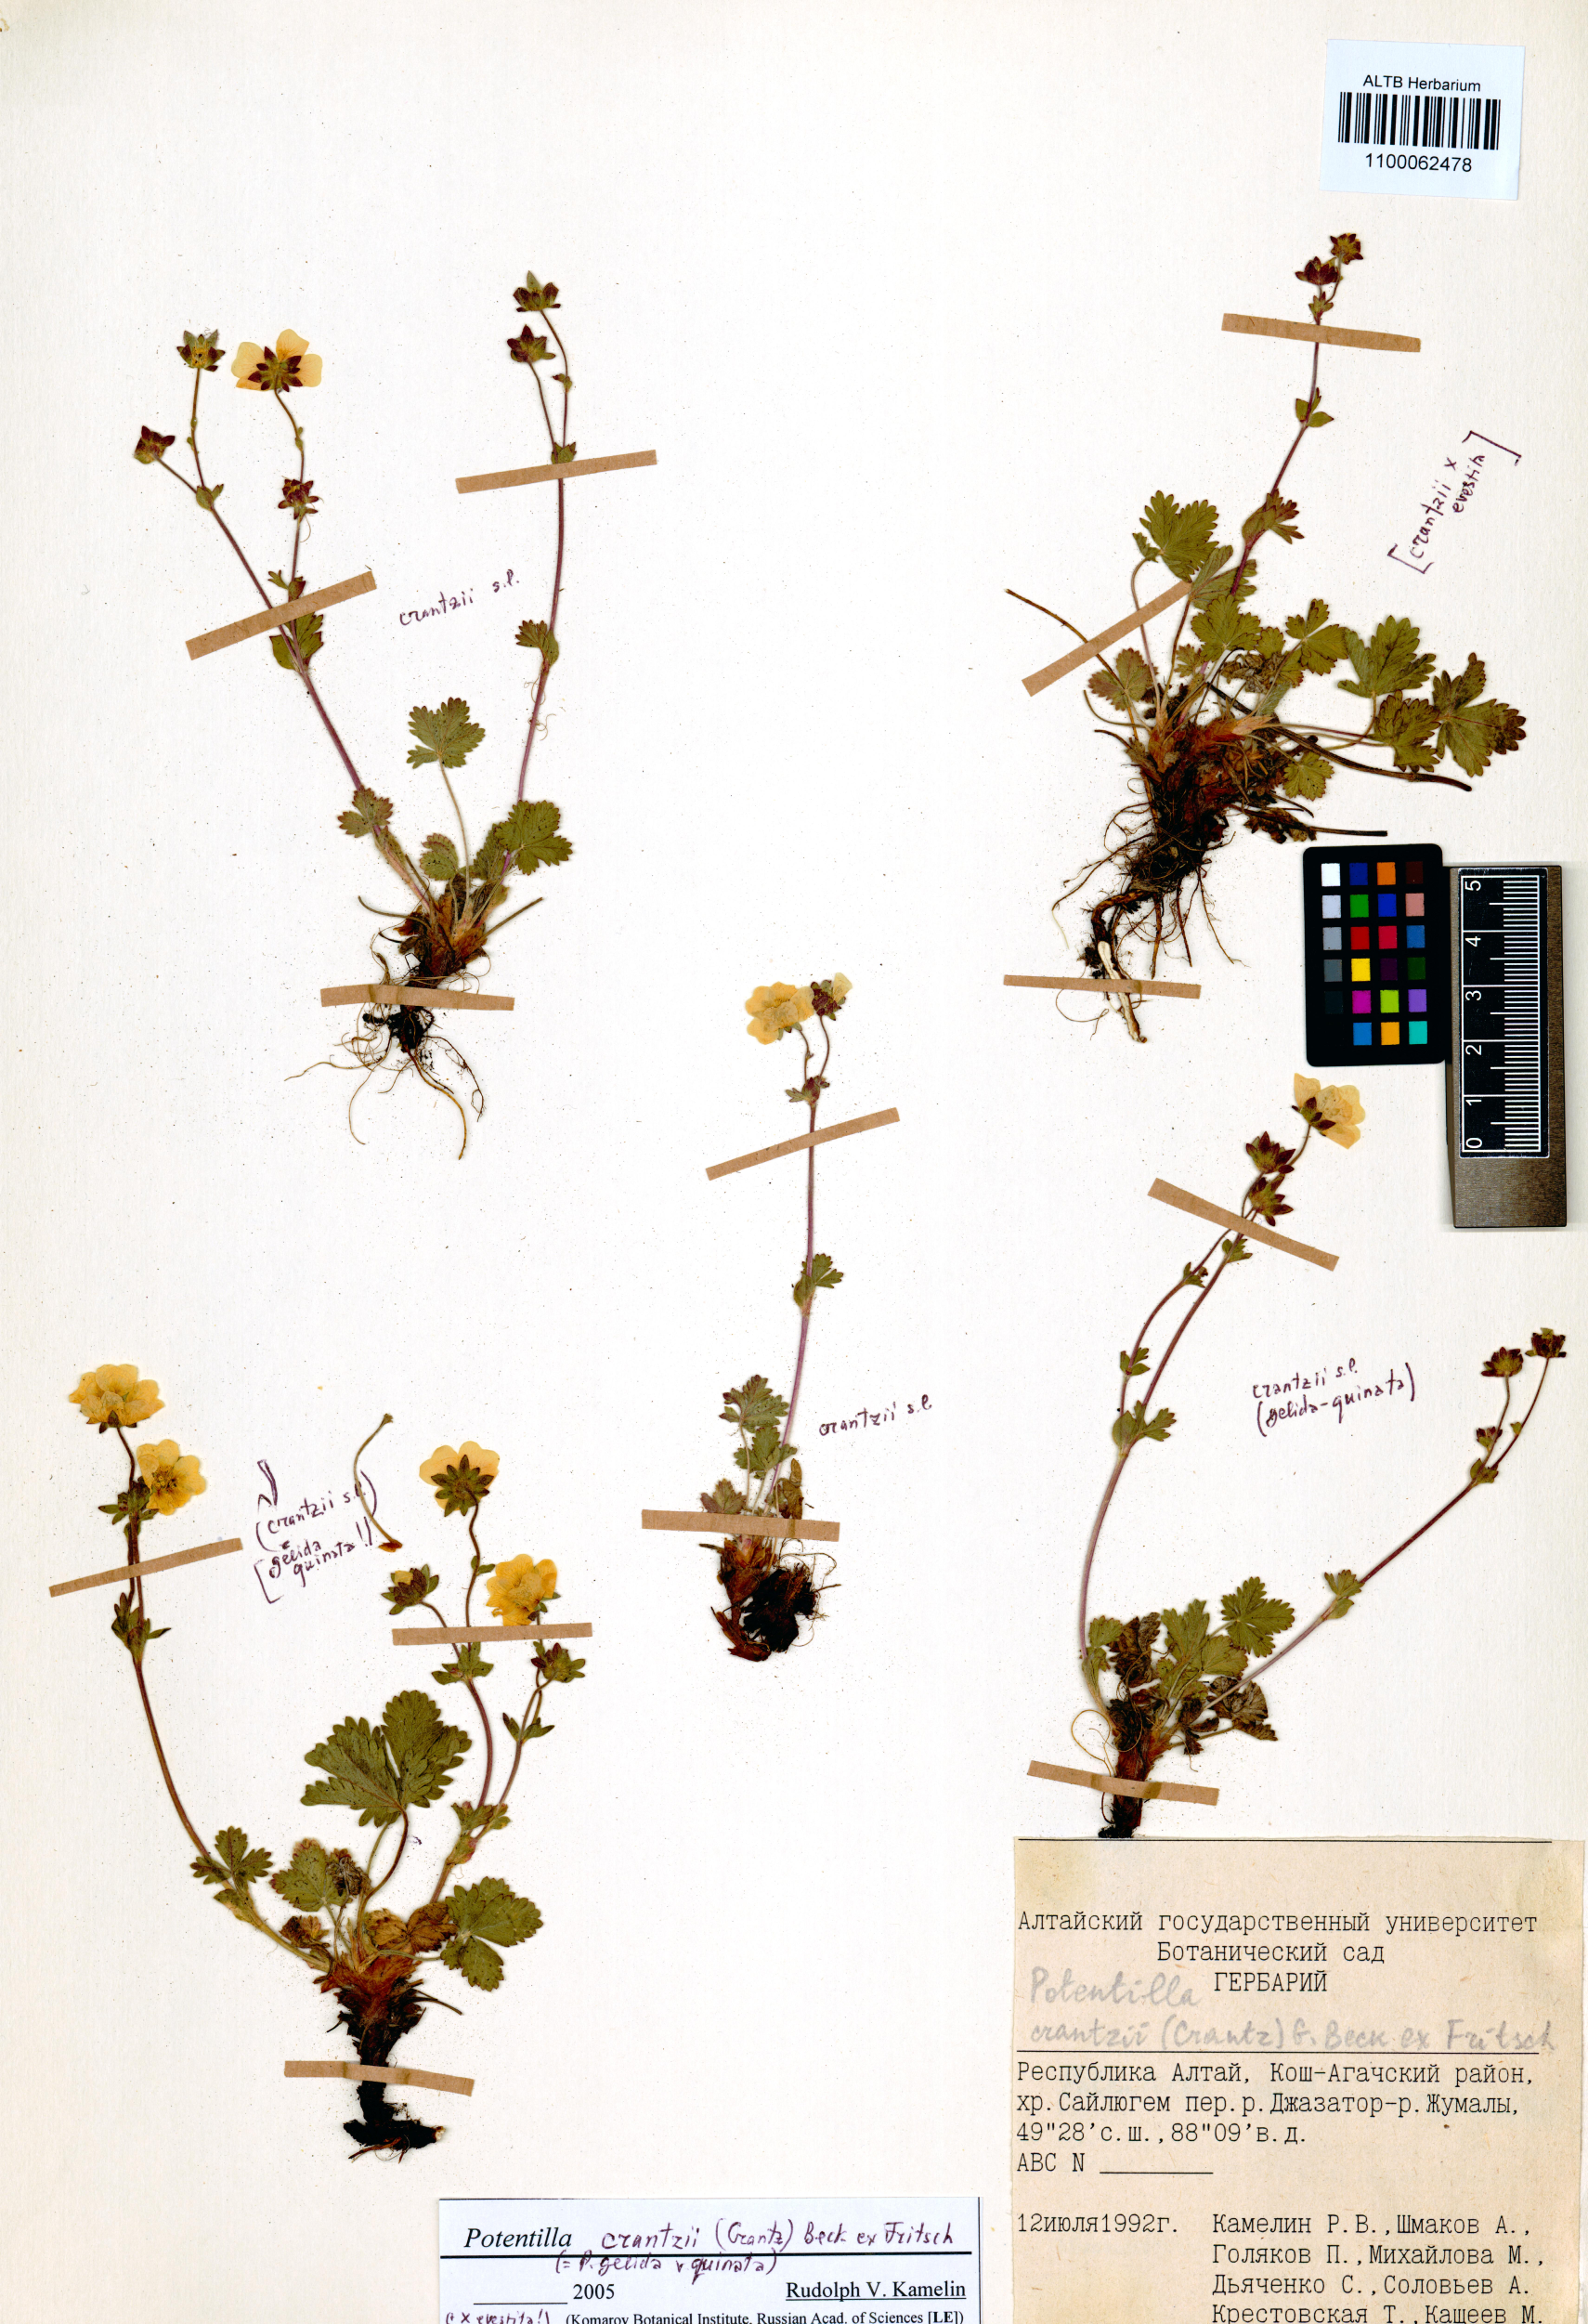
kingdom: Plantae
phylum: Tracheophyta
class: Magnoliopsida
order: Rosales
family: Rosaceae
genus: Potentilla
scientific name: Potentilla crantzii
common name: Alpine cinquefoil
